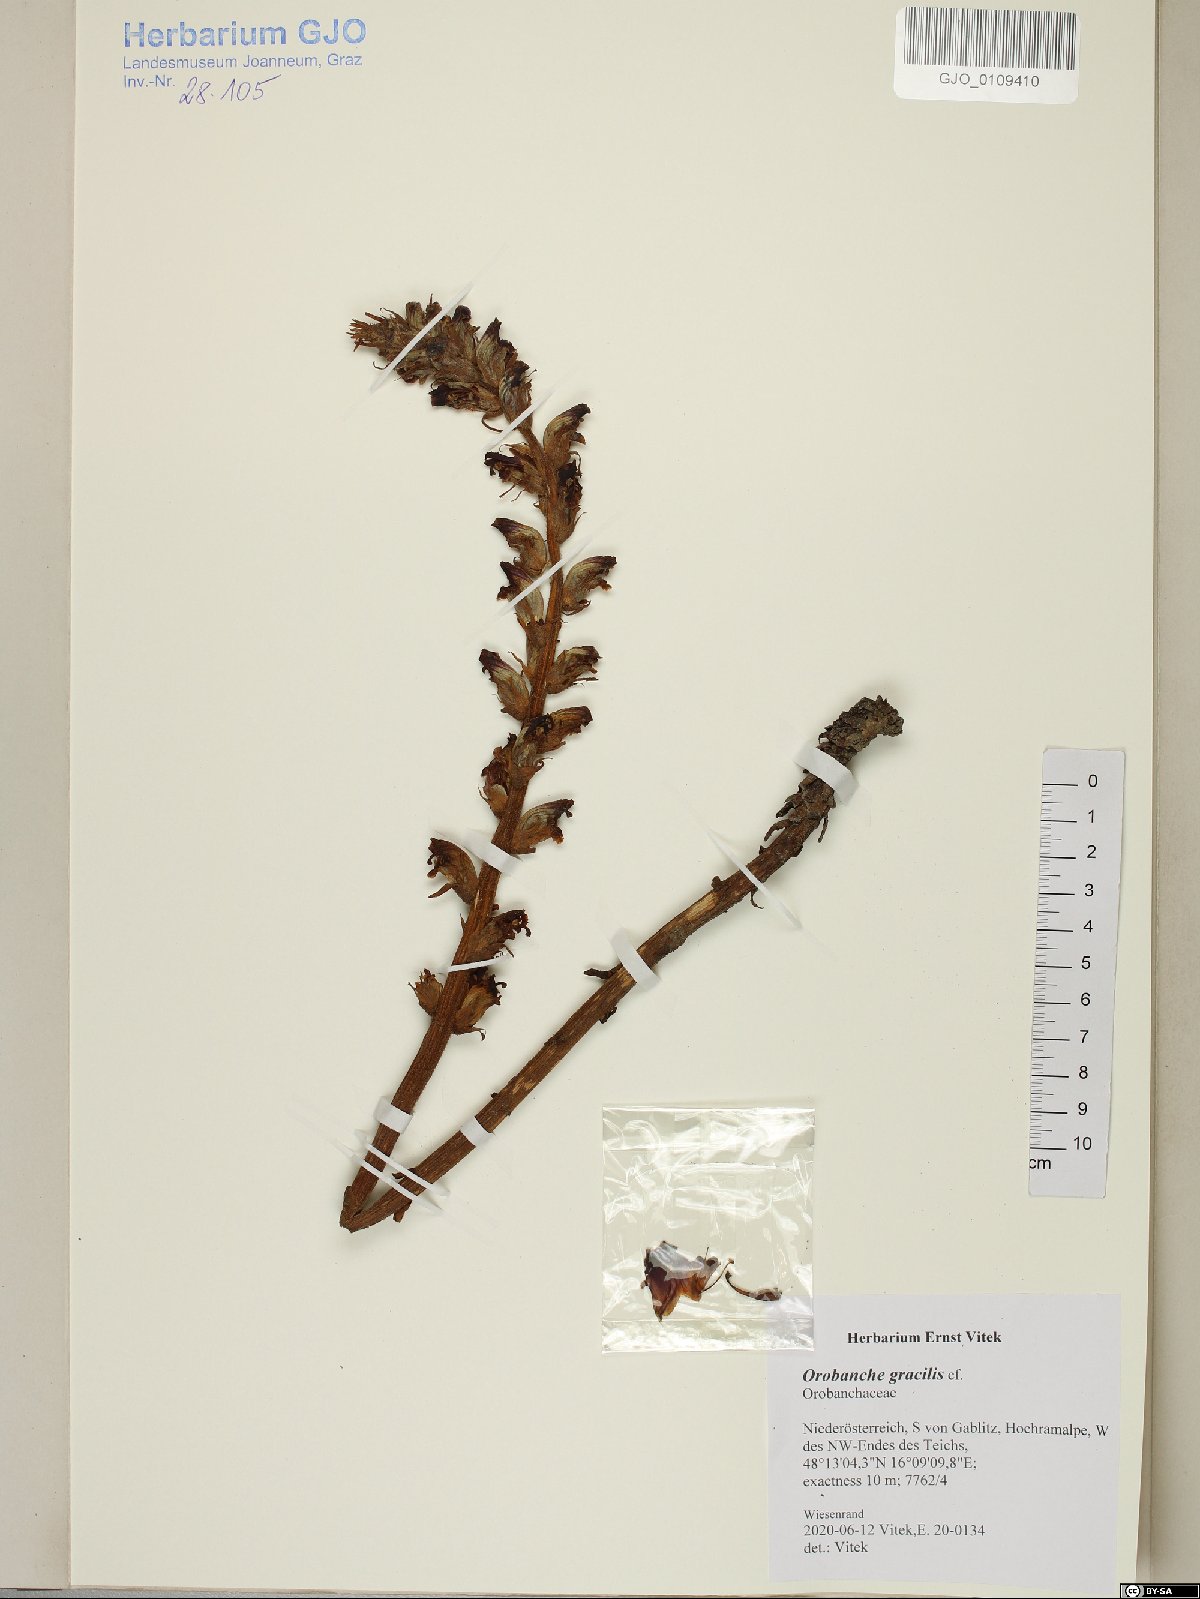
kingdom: Plantae
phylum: Tracheophyta
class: Magnoliopsida
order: Lamiales
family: Orobanchaceae
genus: Orobanche
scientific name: Orobanche gracilis
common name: Slender broomrape
